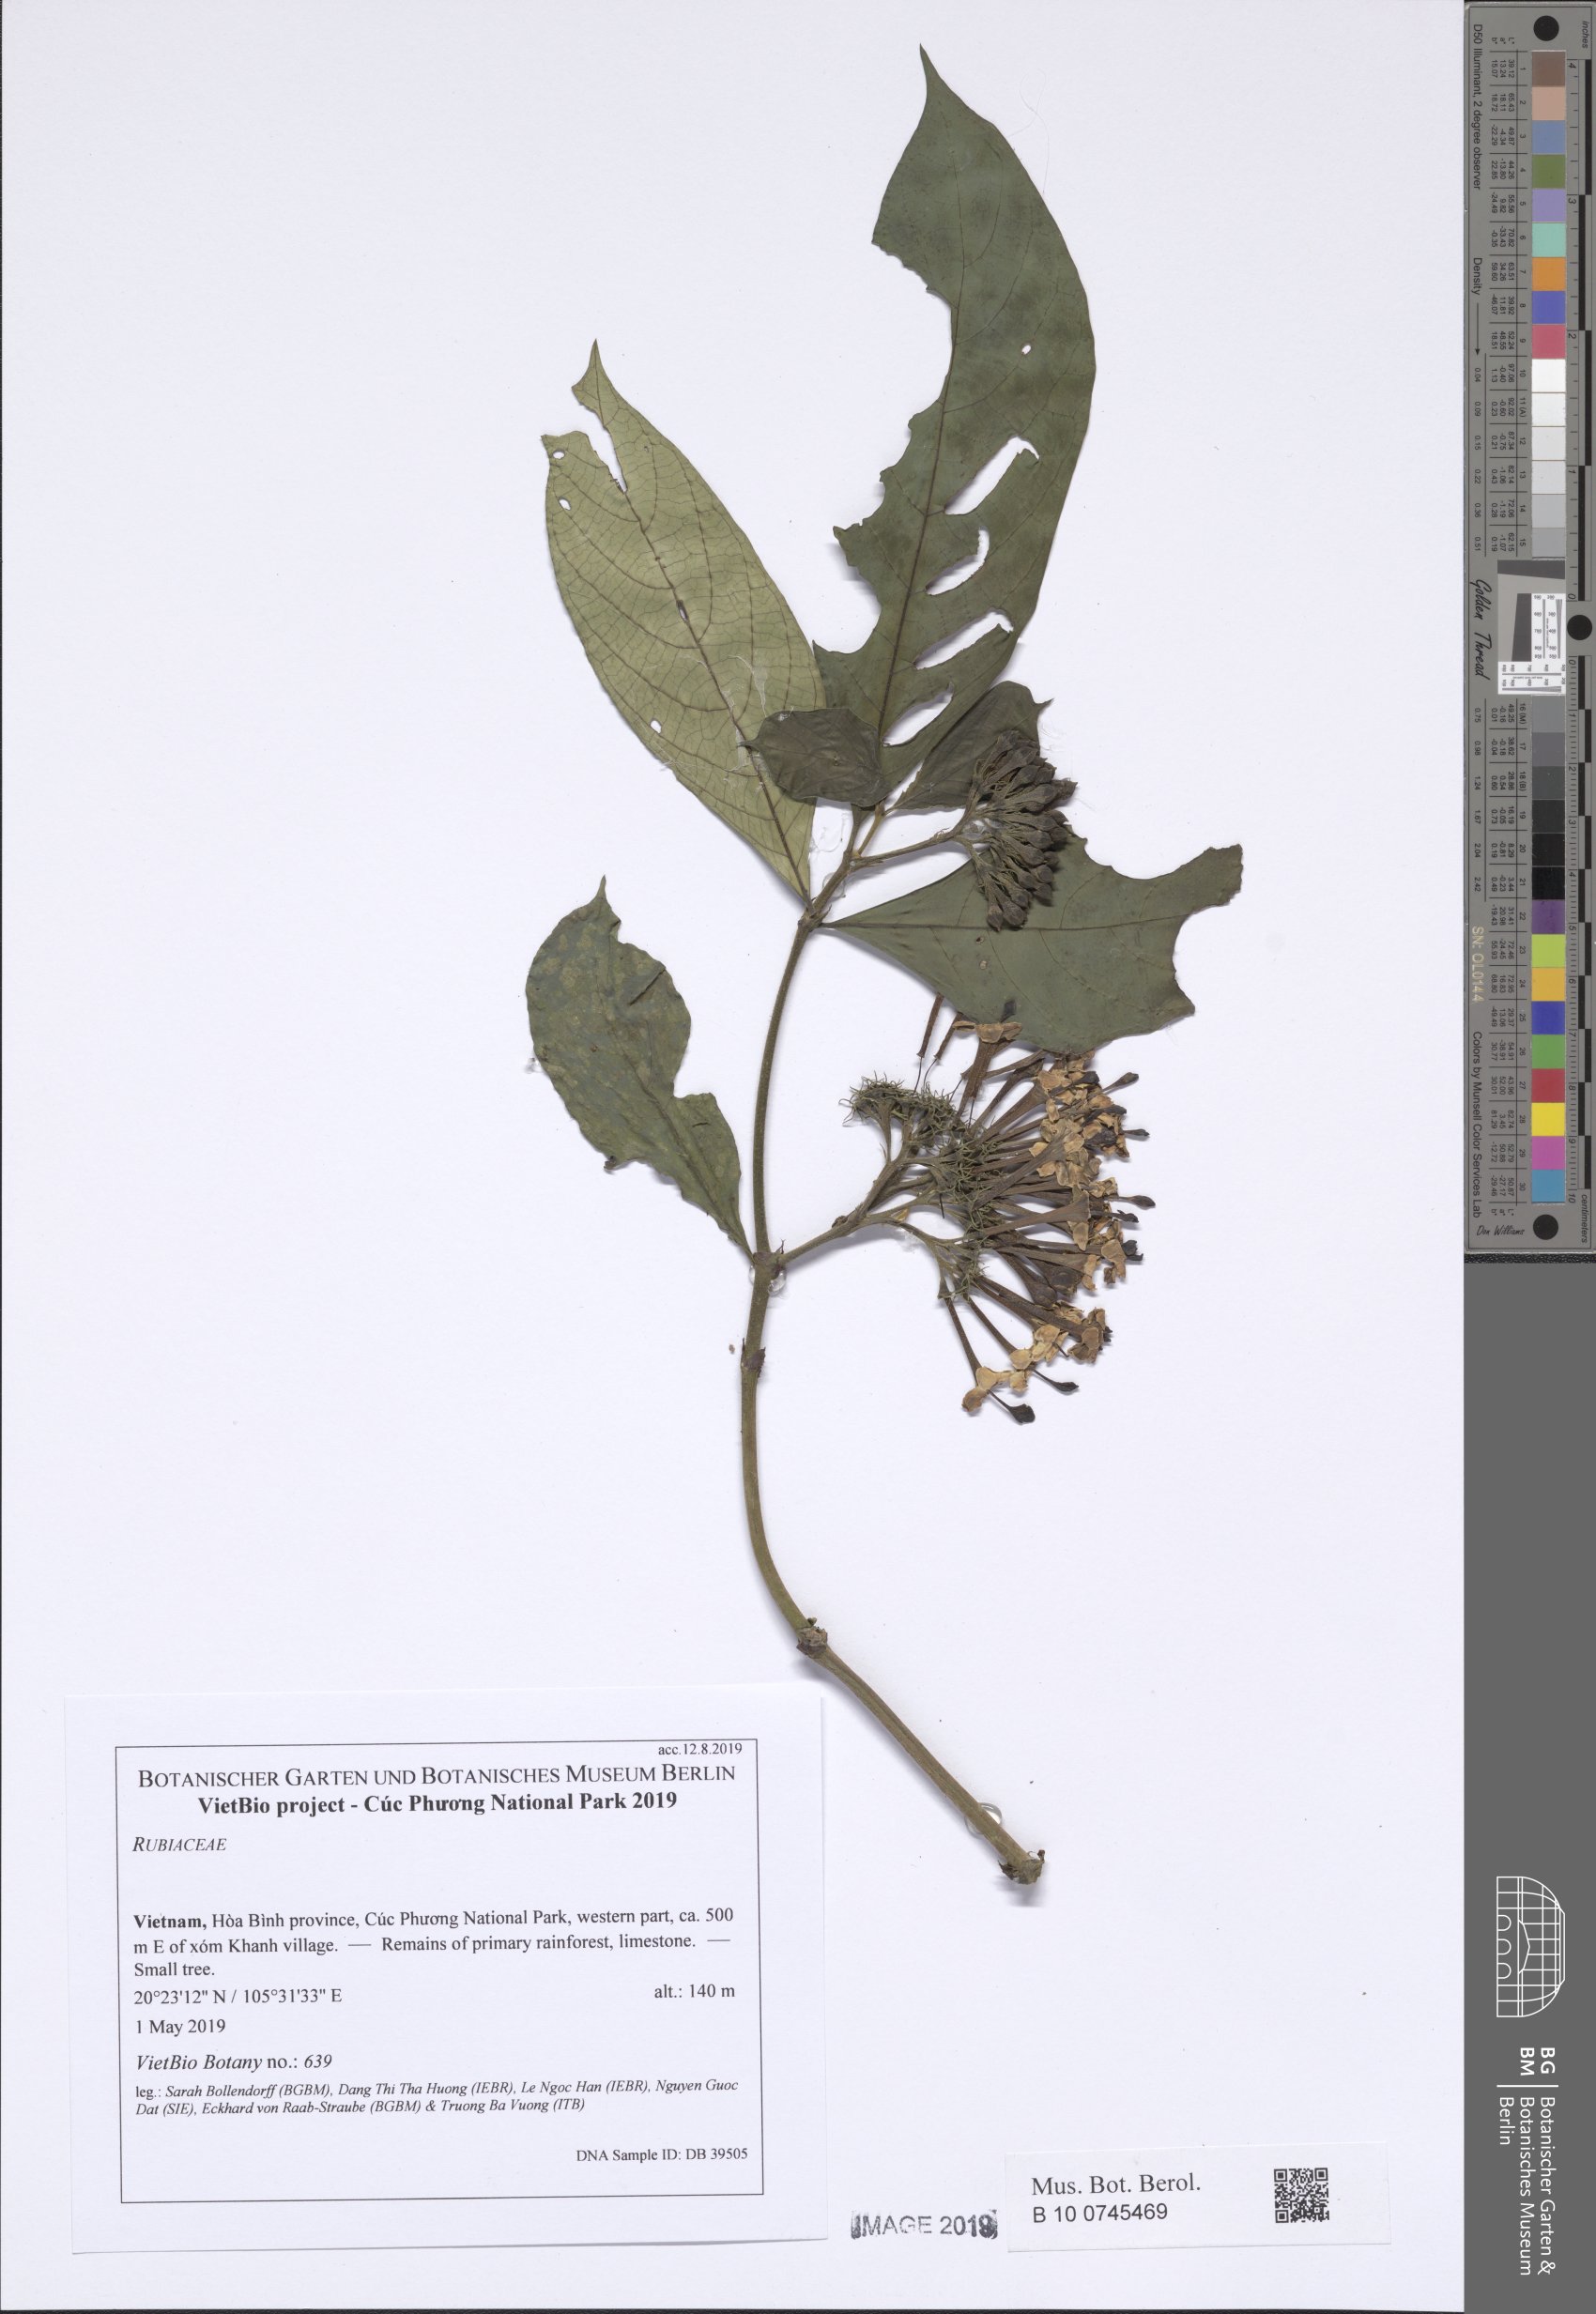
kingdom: Plantae
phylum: Tracheophyta
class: Magnoliopsida
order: Gentianales
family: Rubiaceae
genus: Duperrea
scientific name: Duperrea pavettifolia
